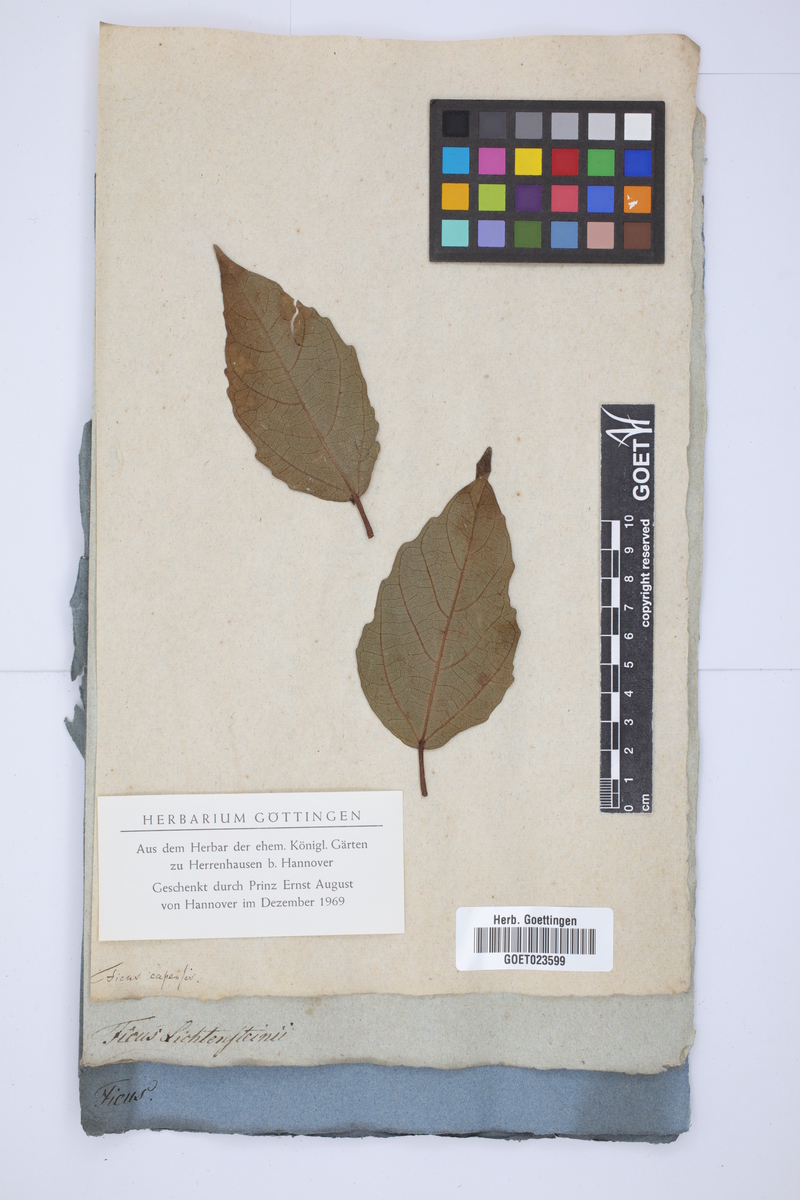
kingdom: Plantae
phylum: Tracheophyta
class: Magnoliopsida
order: Rosales
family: Moraceae
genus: Ficus
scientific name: Ficus sur
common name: Cape fig
